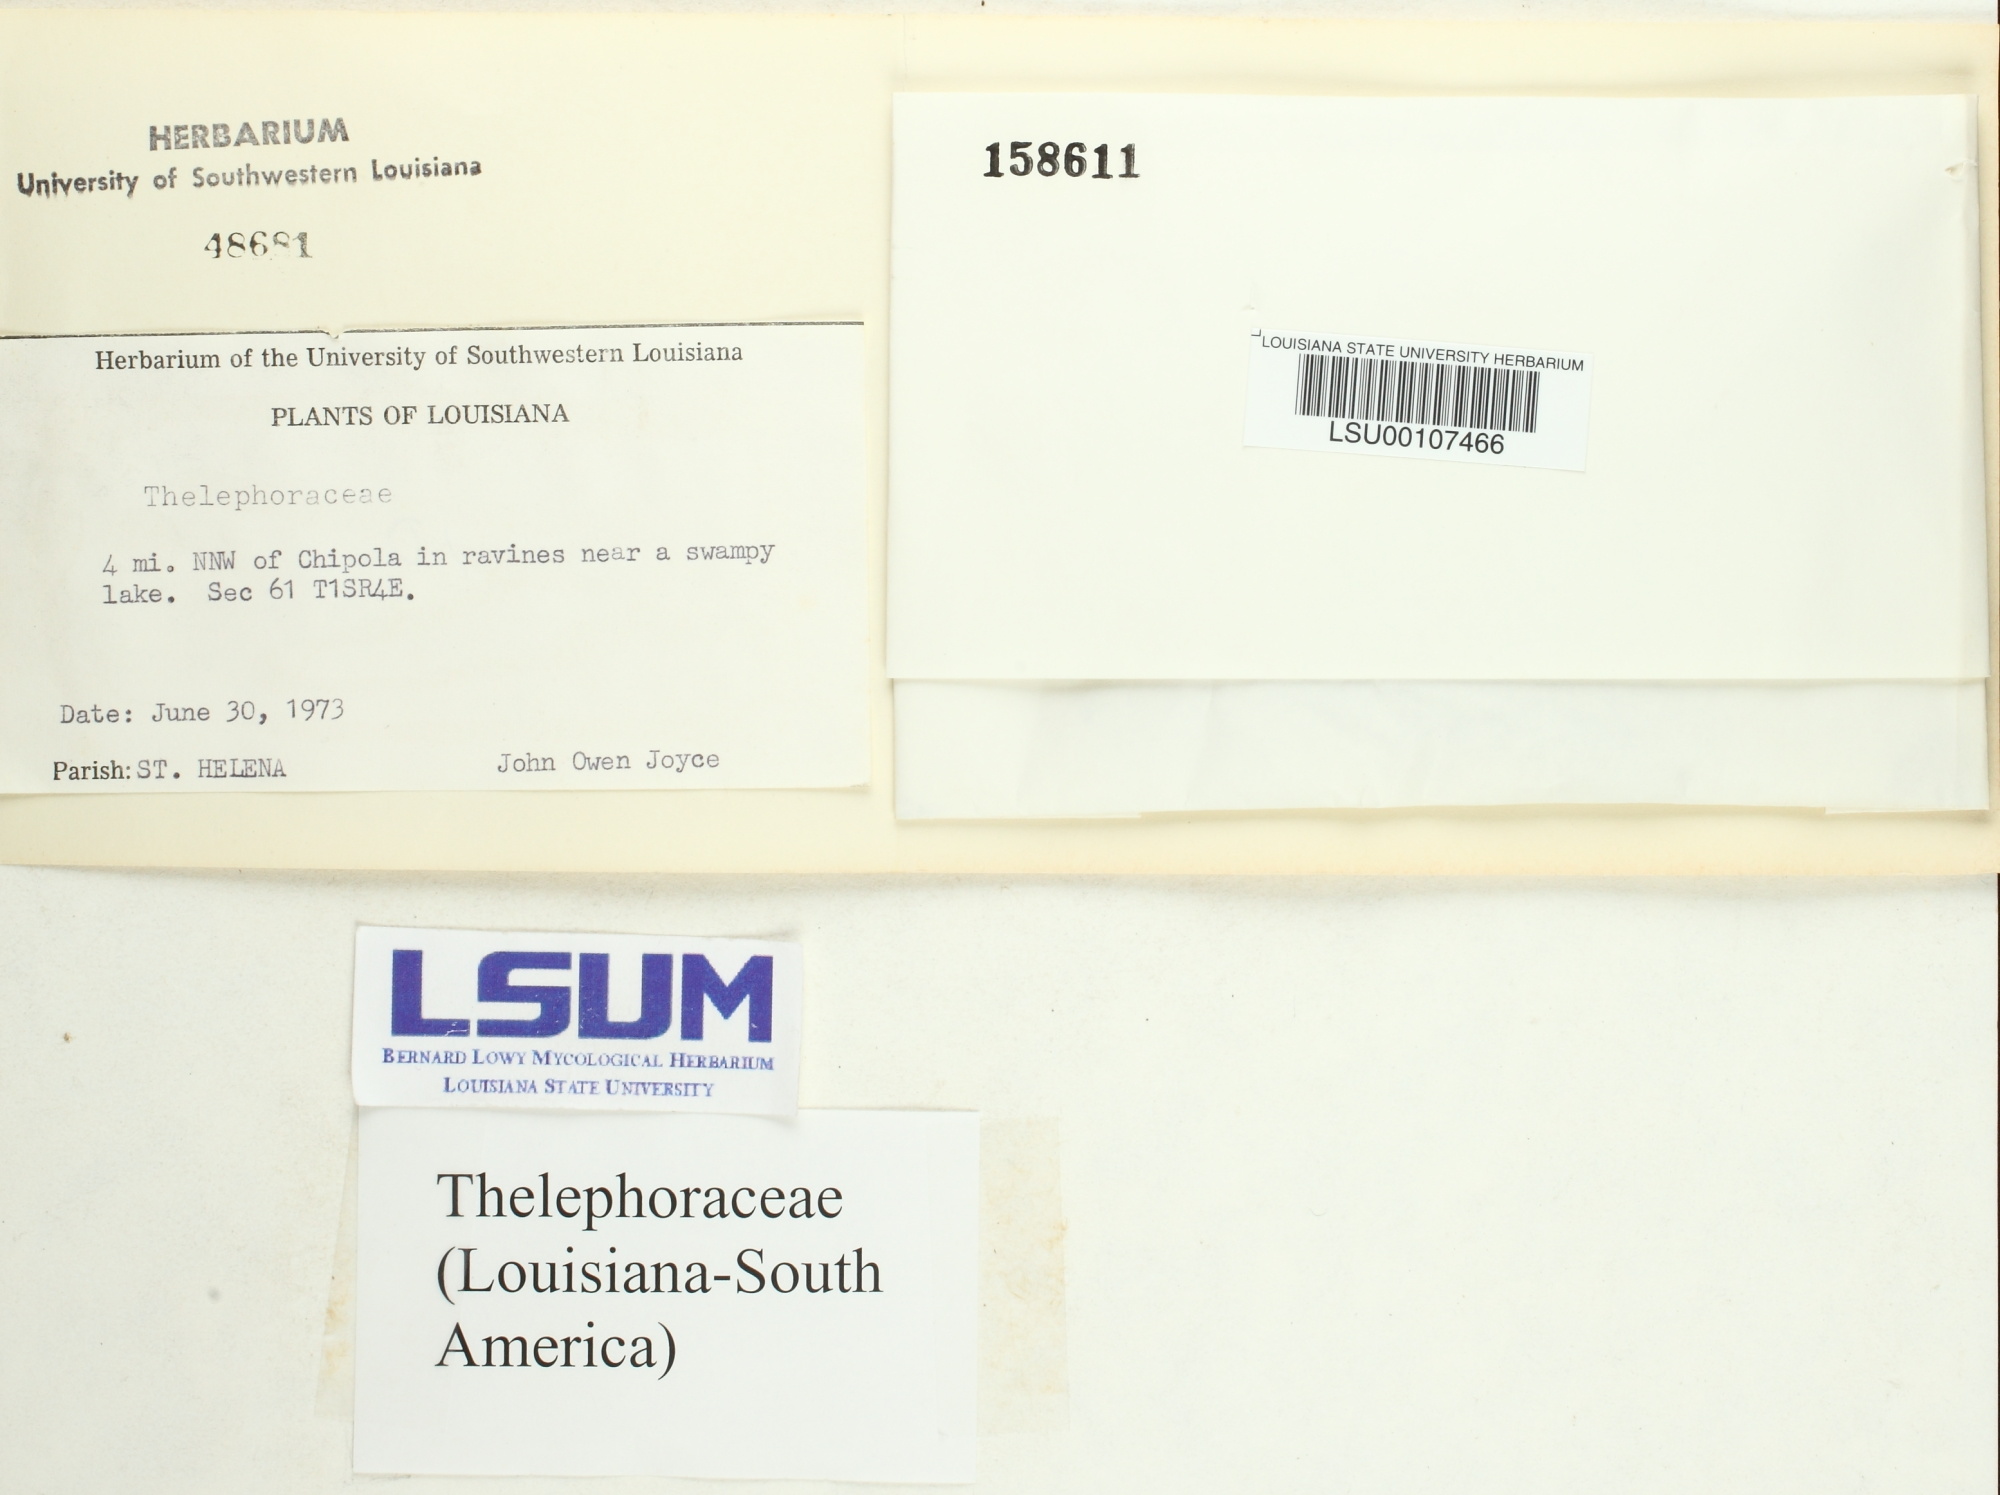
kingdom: Fungi
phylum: Basidiomycota
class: Agaricomycetes
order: Thelephorales
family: Thelephoraceae
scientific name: Thelephoraceae
